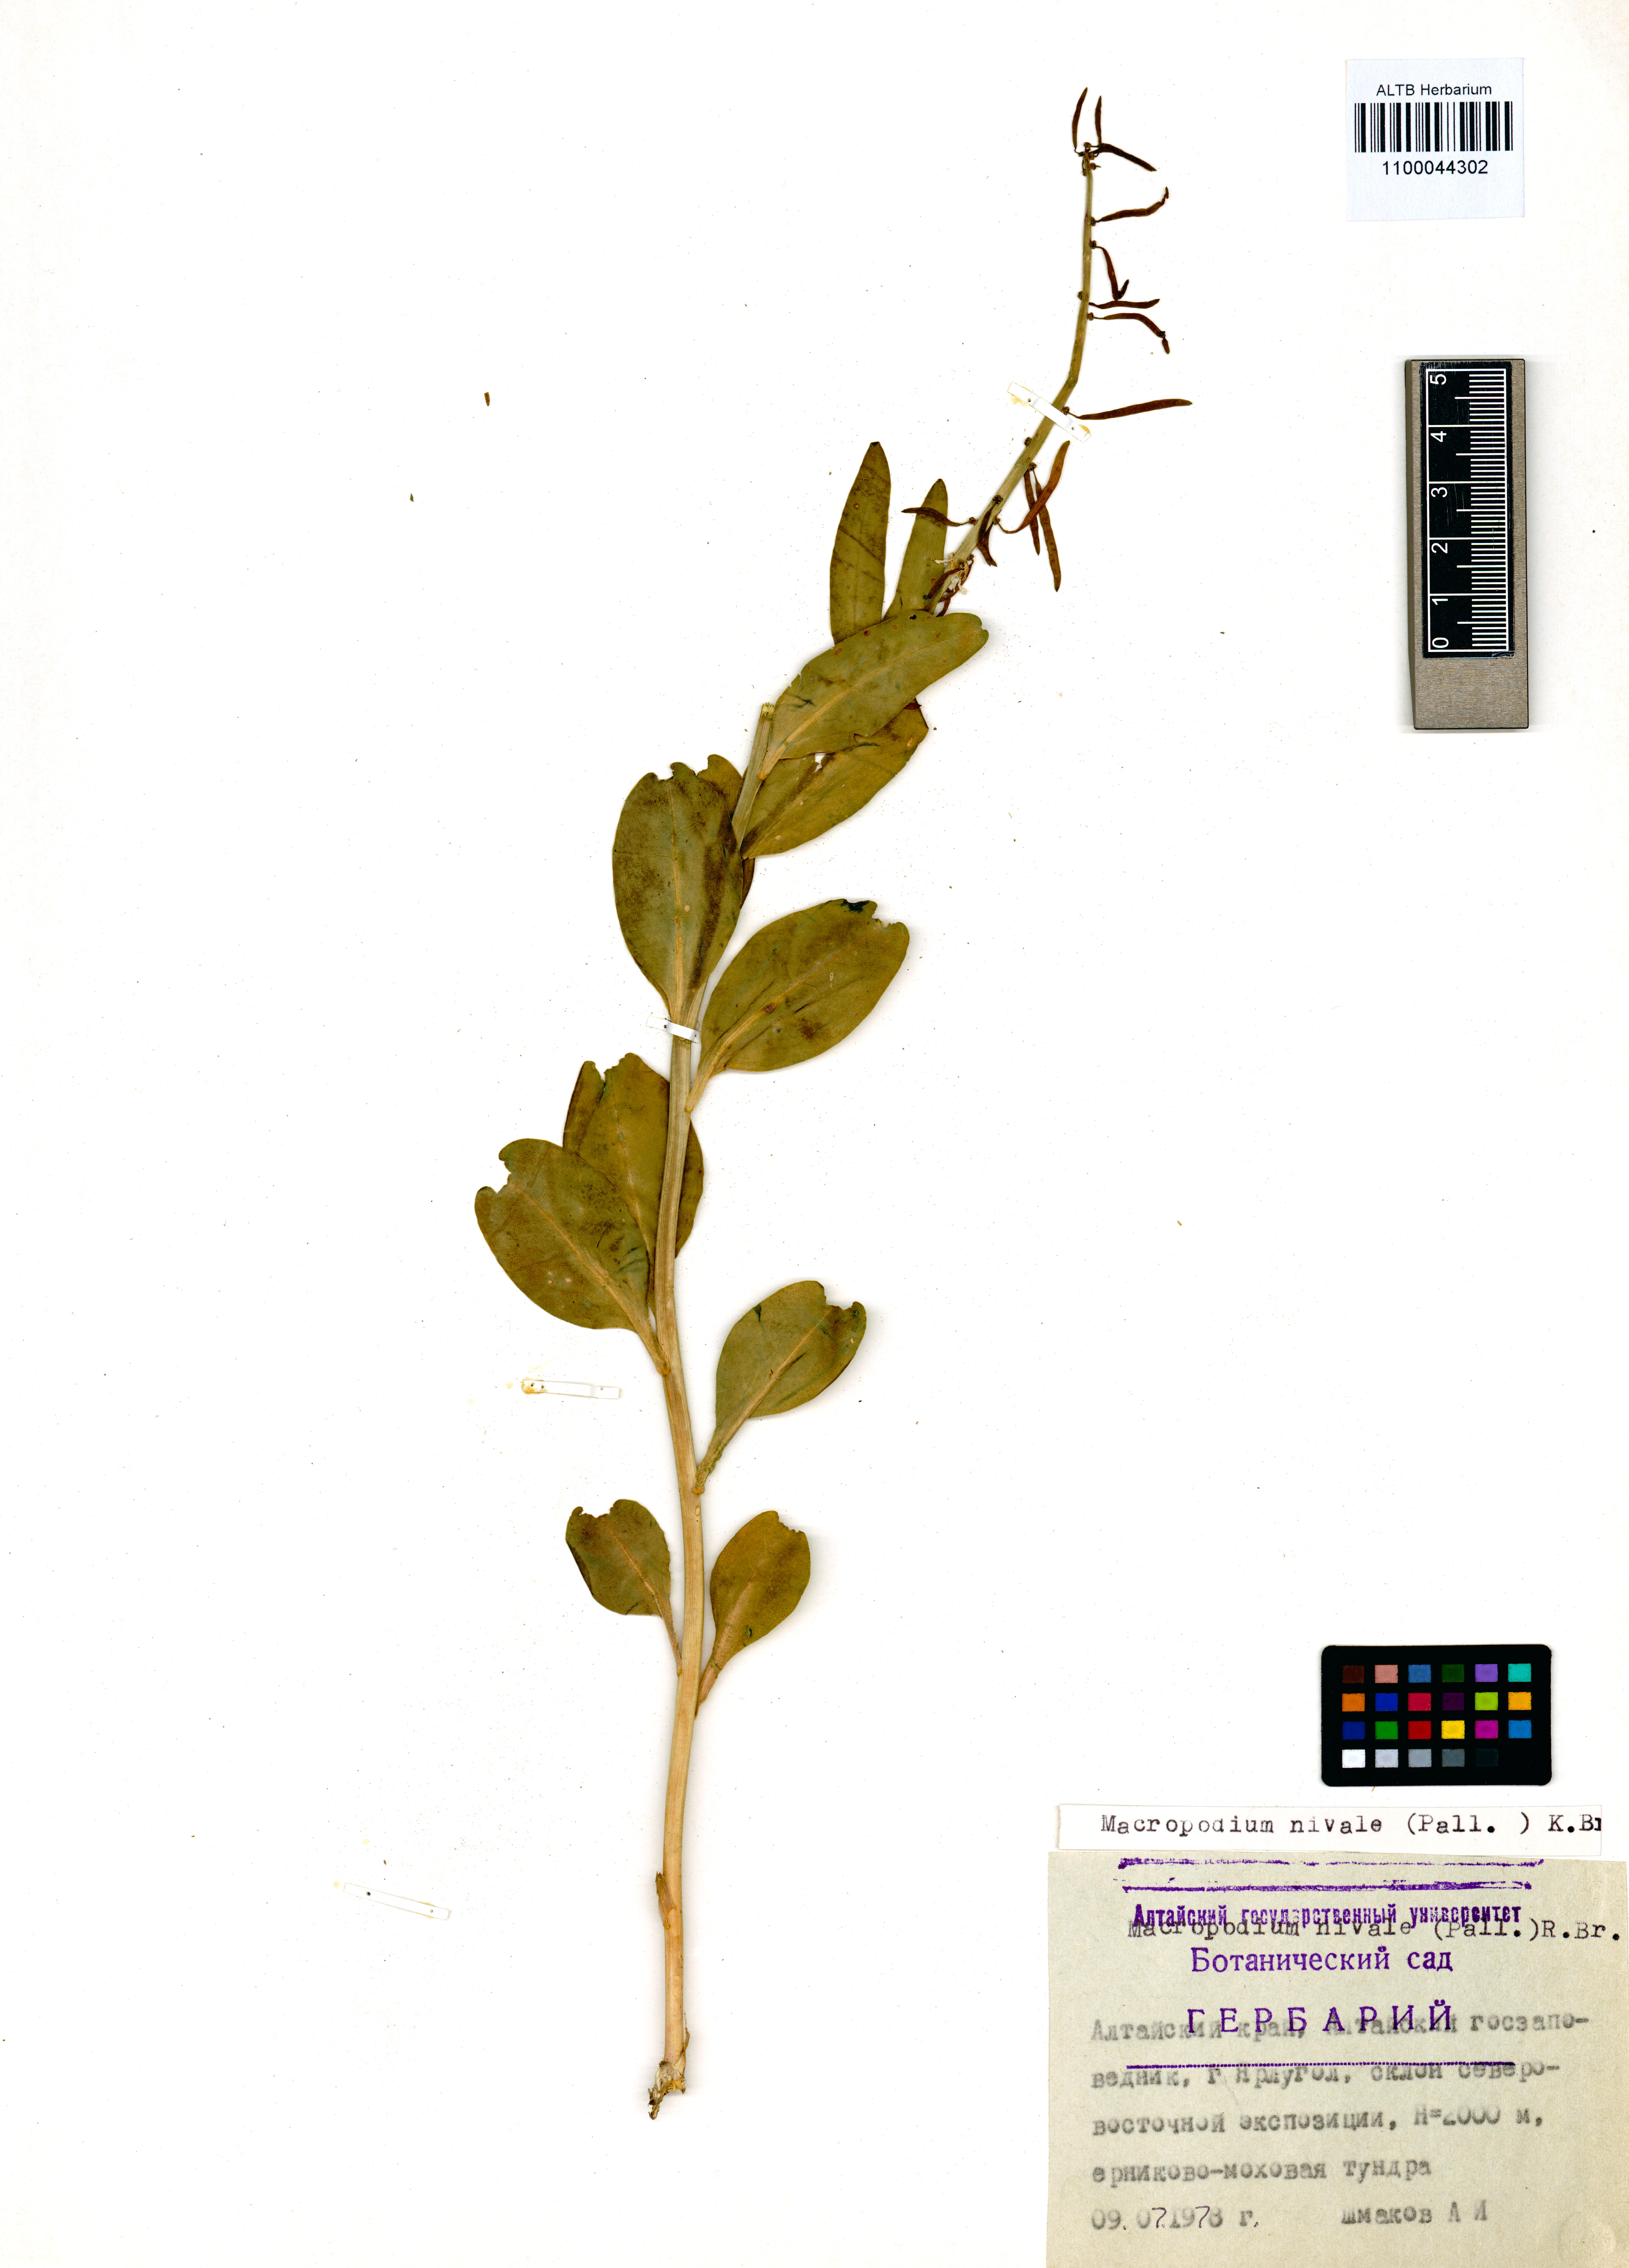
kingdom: Plantae
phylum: Tracheophyta
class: Magnoliopsida
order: Brassicales
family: Brassicaceae
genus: Macropodium
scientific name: Macropodium nivale
